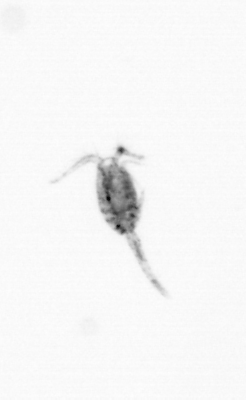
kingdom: Animalia
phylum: Arthropoda
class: Copepoda
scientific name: Copepoda
